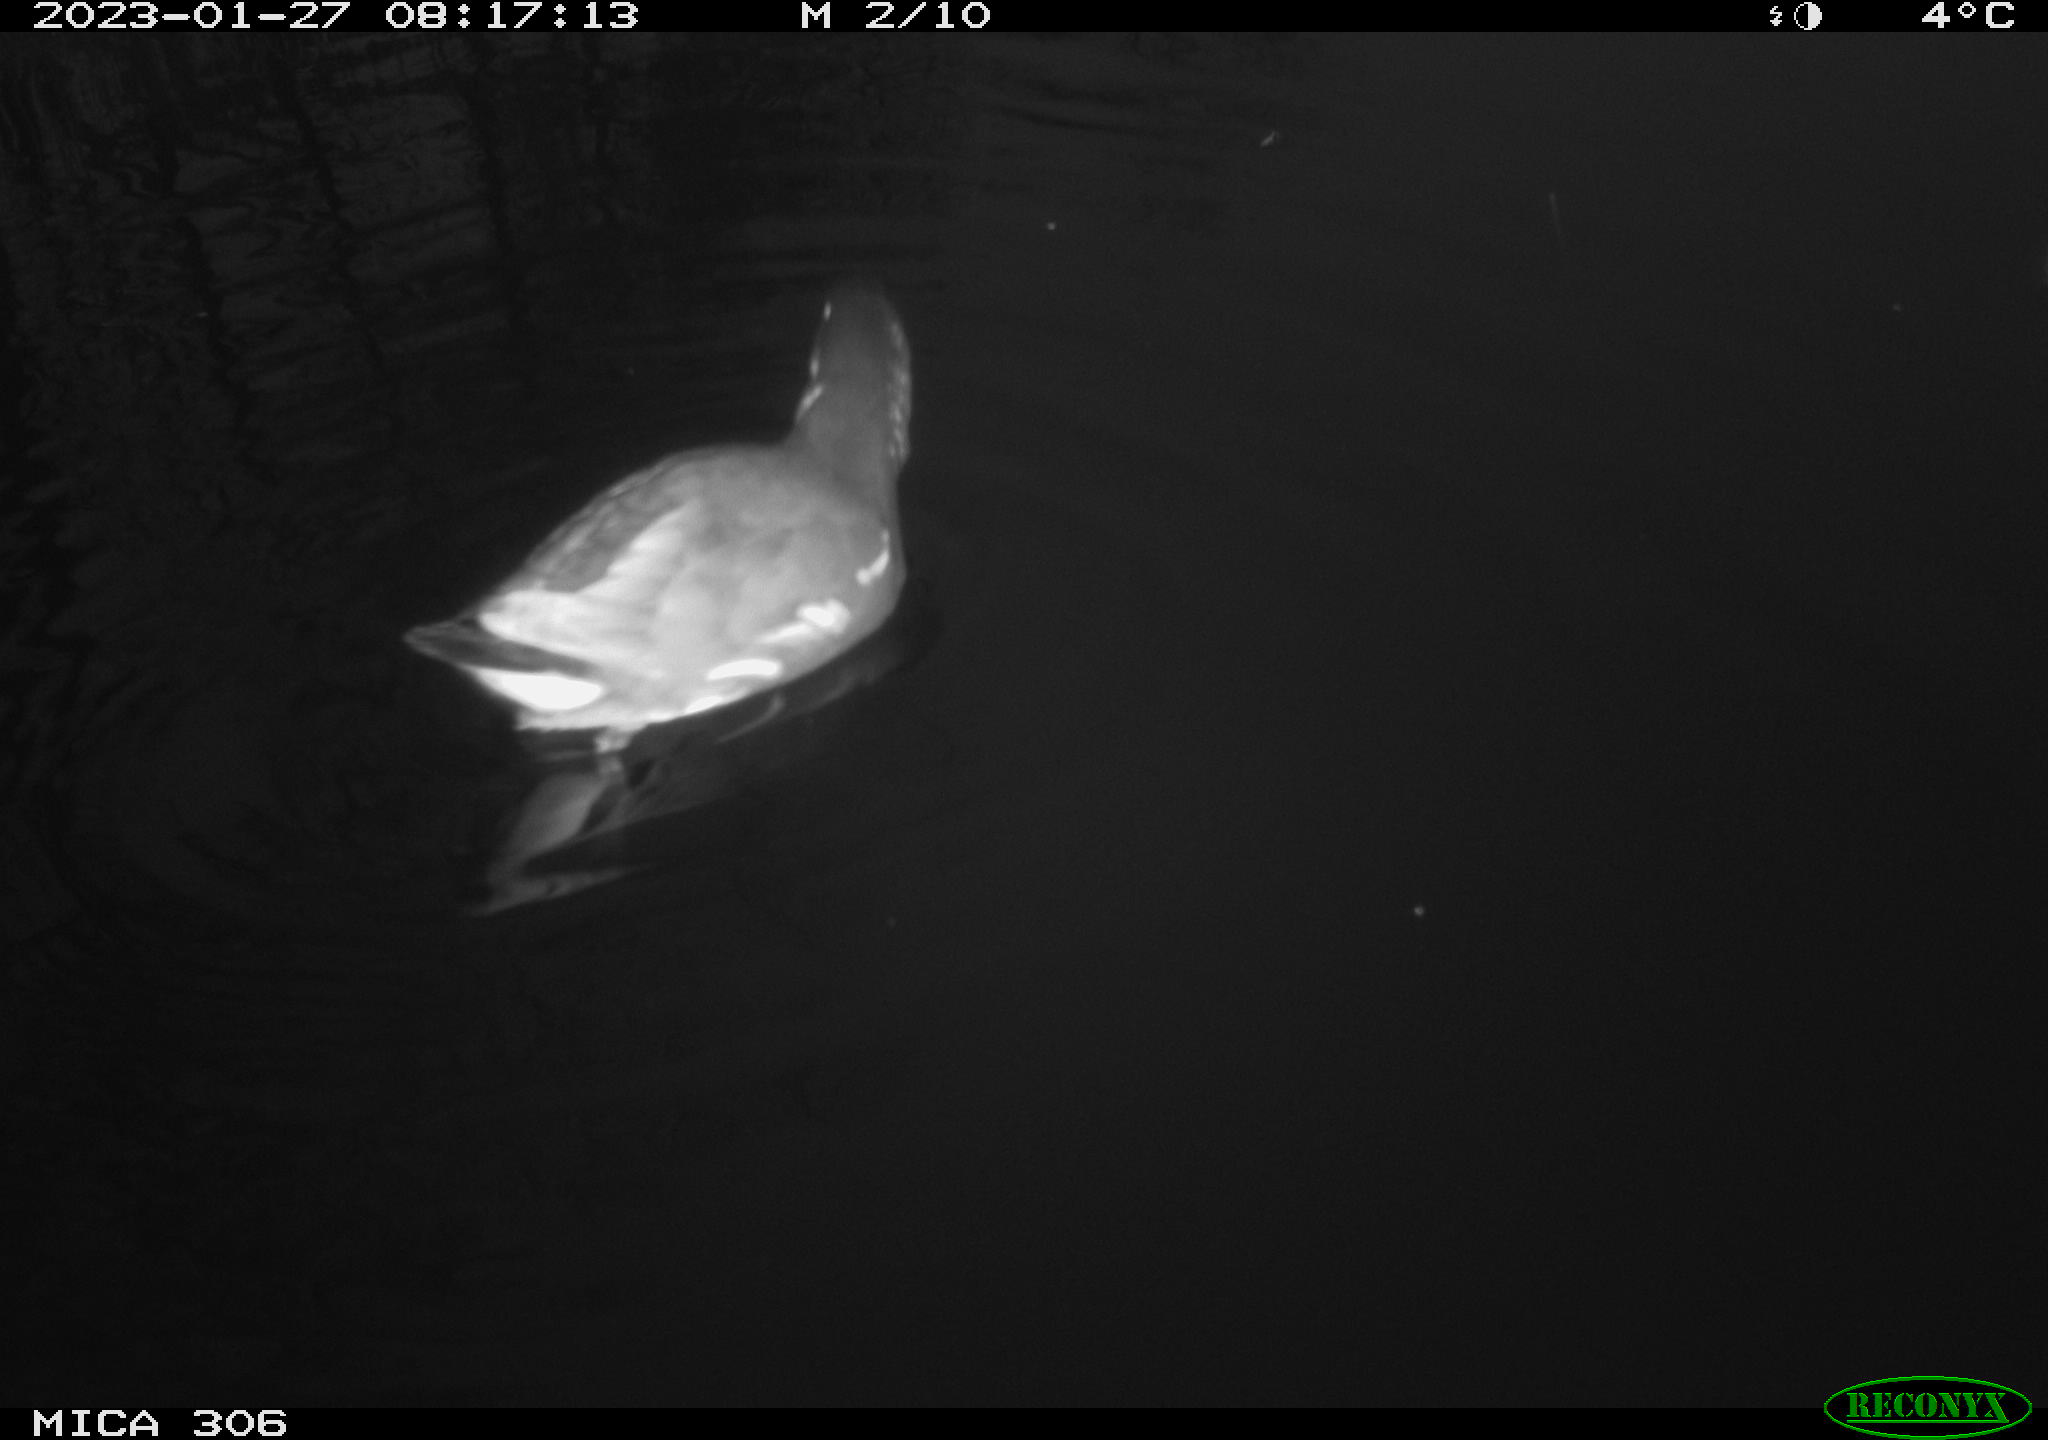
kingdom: Animalia
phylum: Chordata
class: Aves
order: Anseriformes
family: Anatidae
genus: Anas
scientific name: Anas
